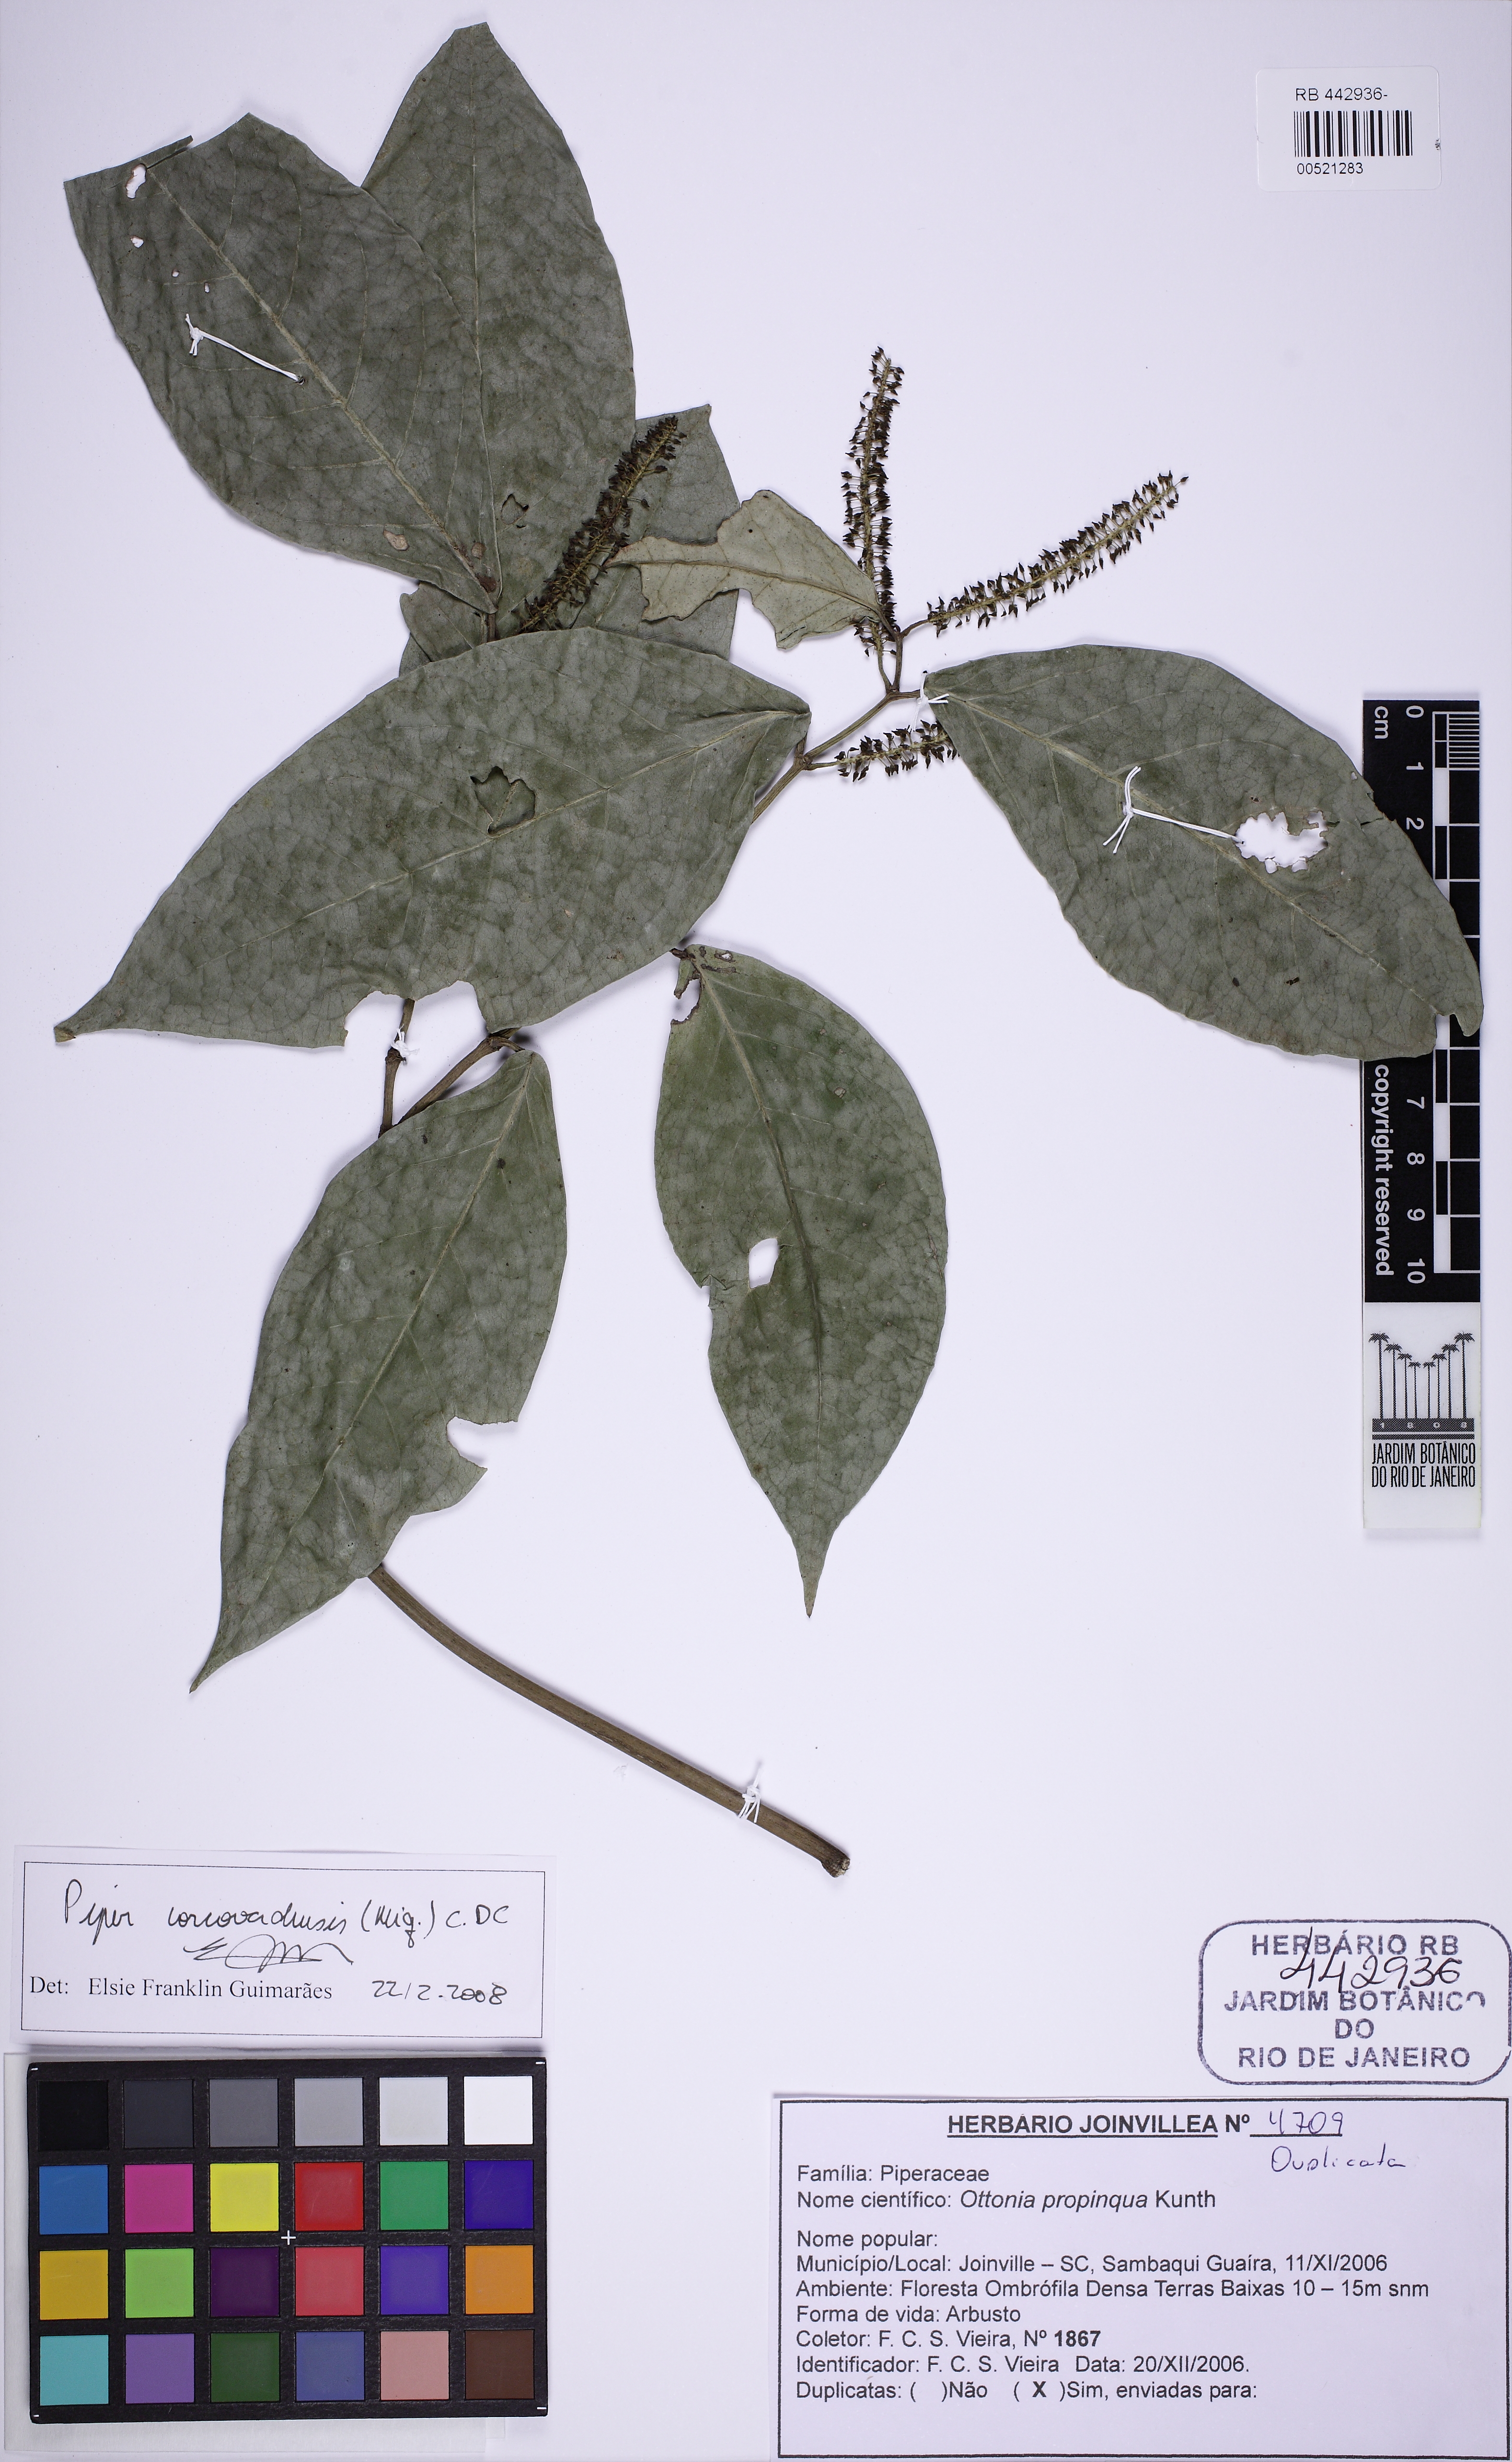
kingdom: Plantae
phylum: Tracheophyta
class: Magnoliopsida
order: Piperales
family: Piperaceae
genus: Piper
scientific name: Piper corcovadense
